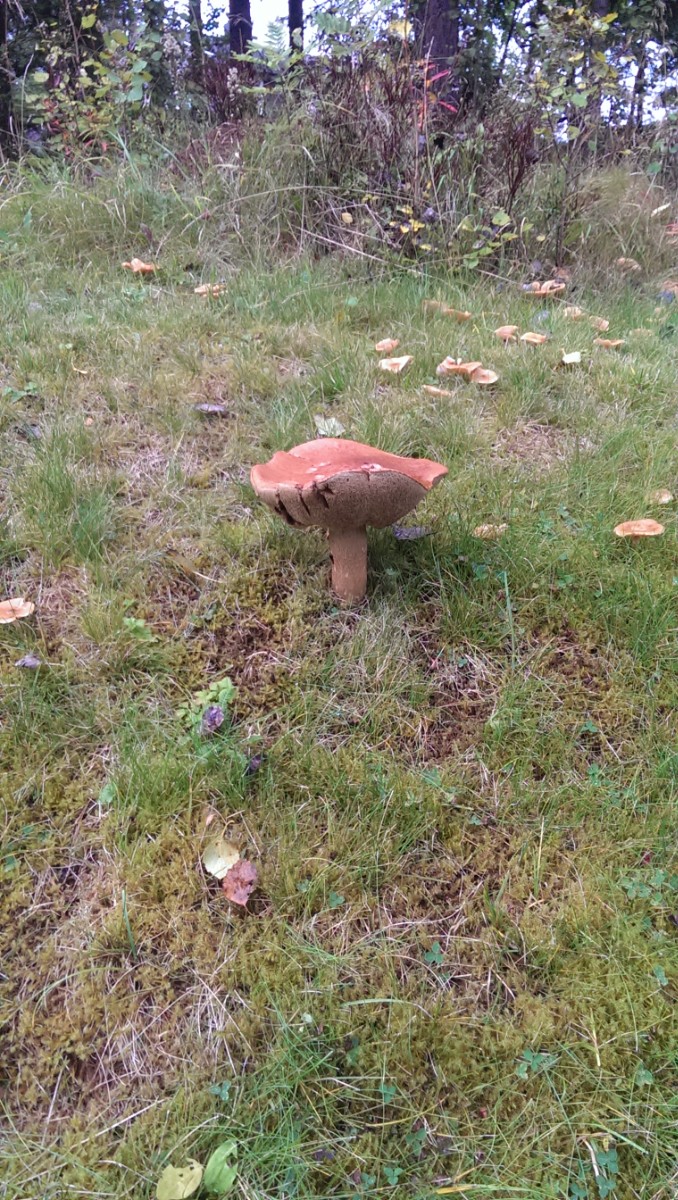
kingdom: Fungi
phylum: Basidiomycota
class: Agaricomycetes
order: Boletales
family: Boletaceae
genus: Imleria
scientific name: Imleria badia
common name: brunstokket rørhat
